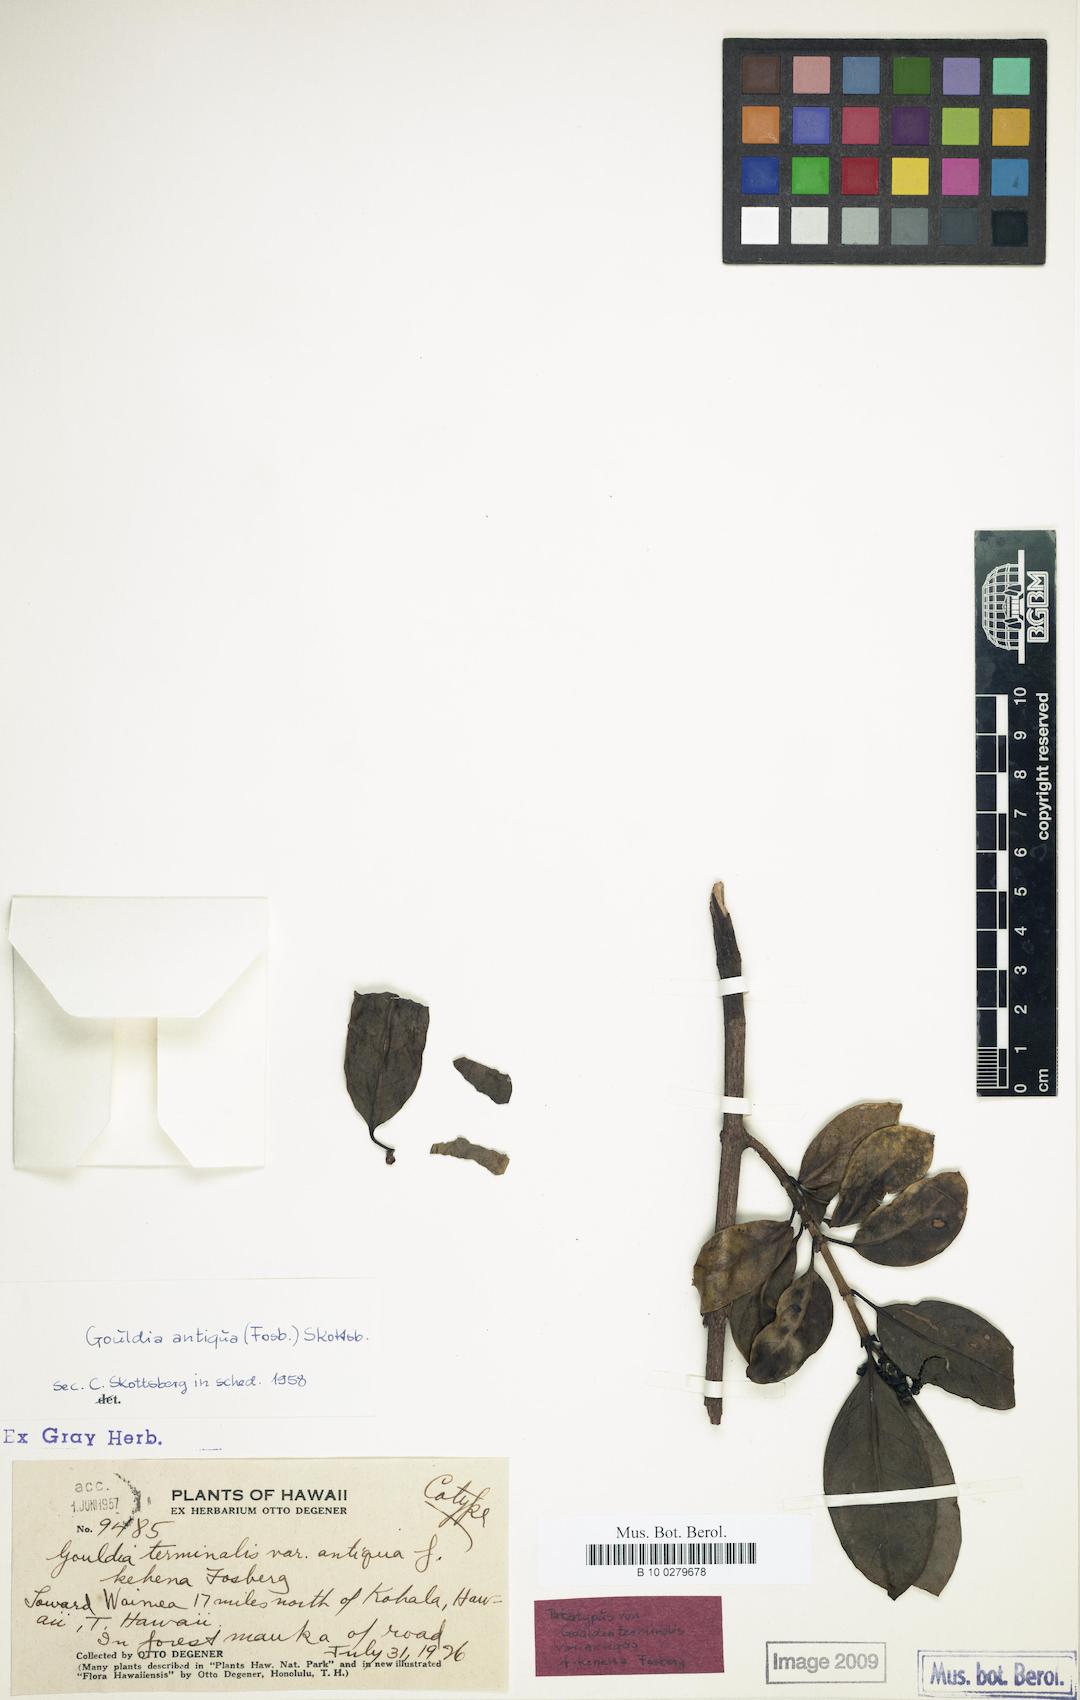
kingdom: Plantae
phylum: Tracheophyta
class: Magnoliopsida
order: Gentianales
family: Rubiaceae
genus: Kadua
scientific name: Kadua affinis
